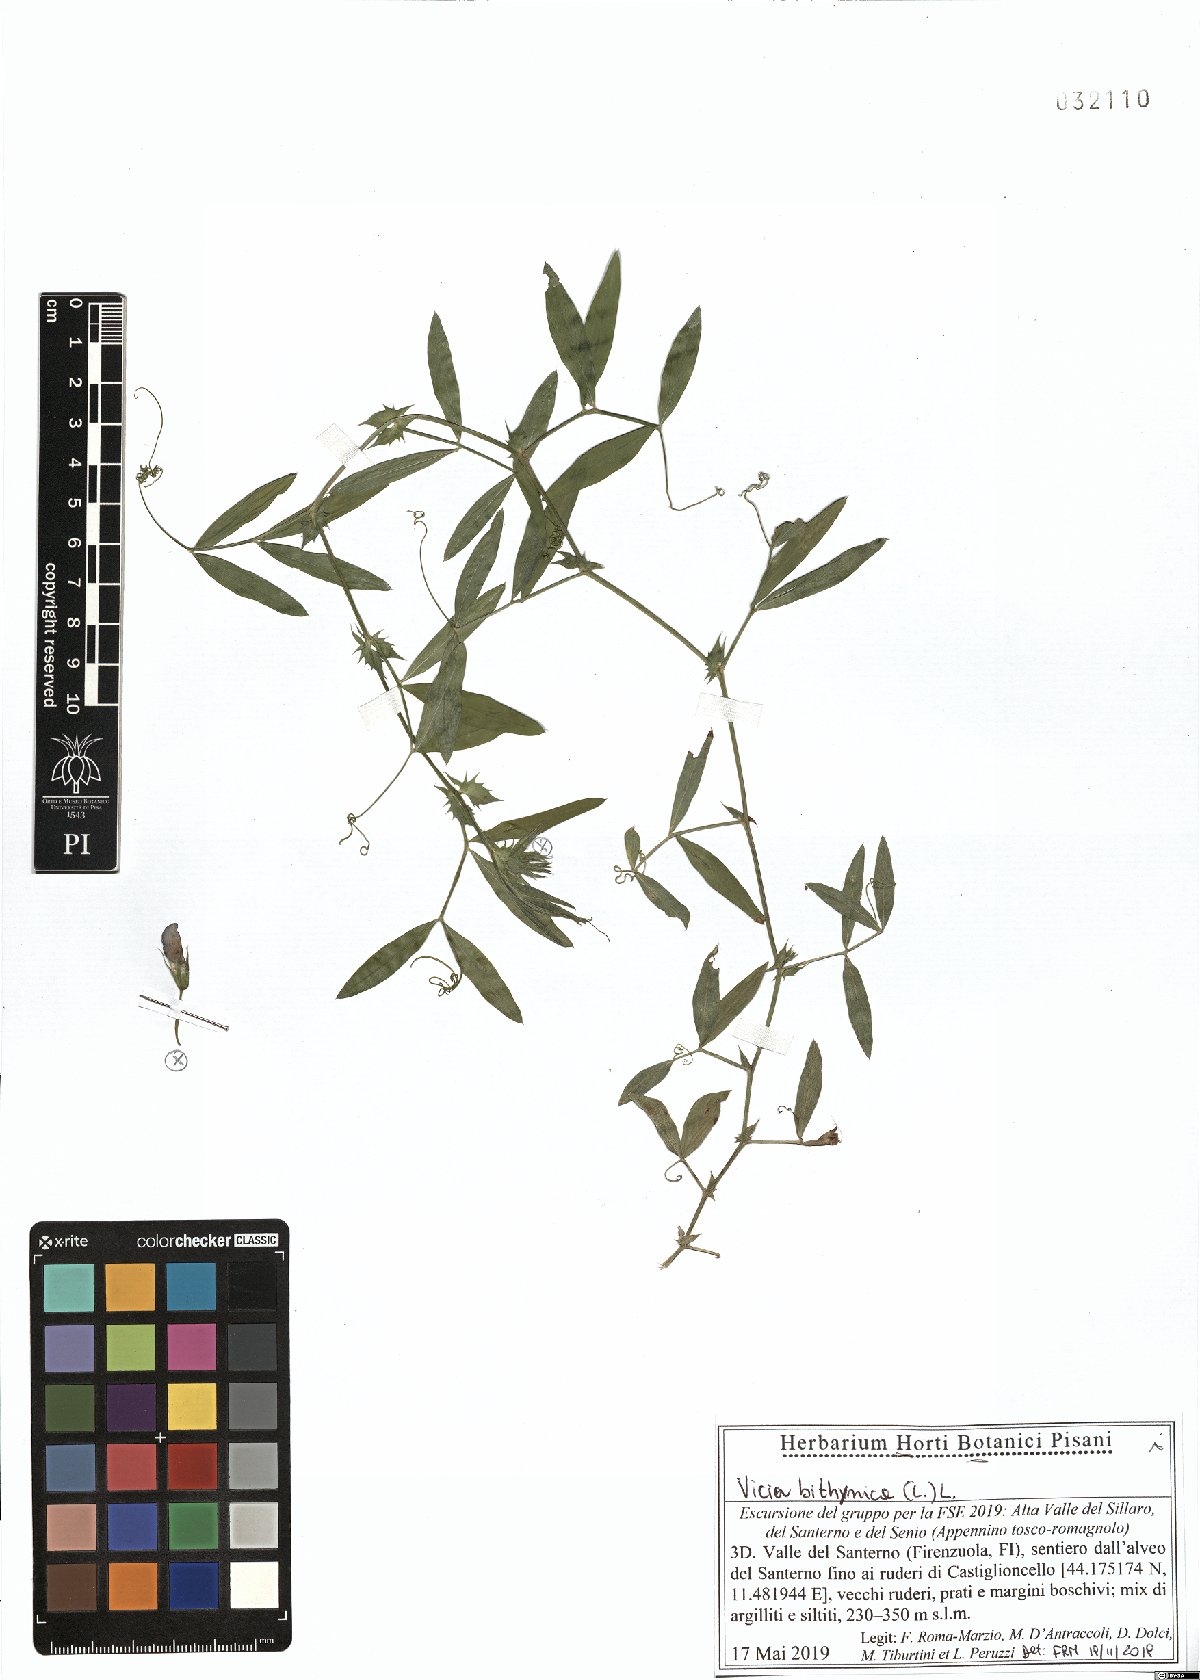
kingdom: Plantae
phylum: Tracheophyta
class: Magnoliopsida
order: Fabales
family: Fabaceae
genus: Vicia
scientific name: Vicia bithynica
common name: Bithynian vetch
